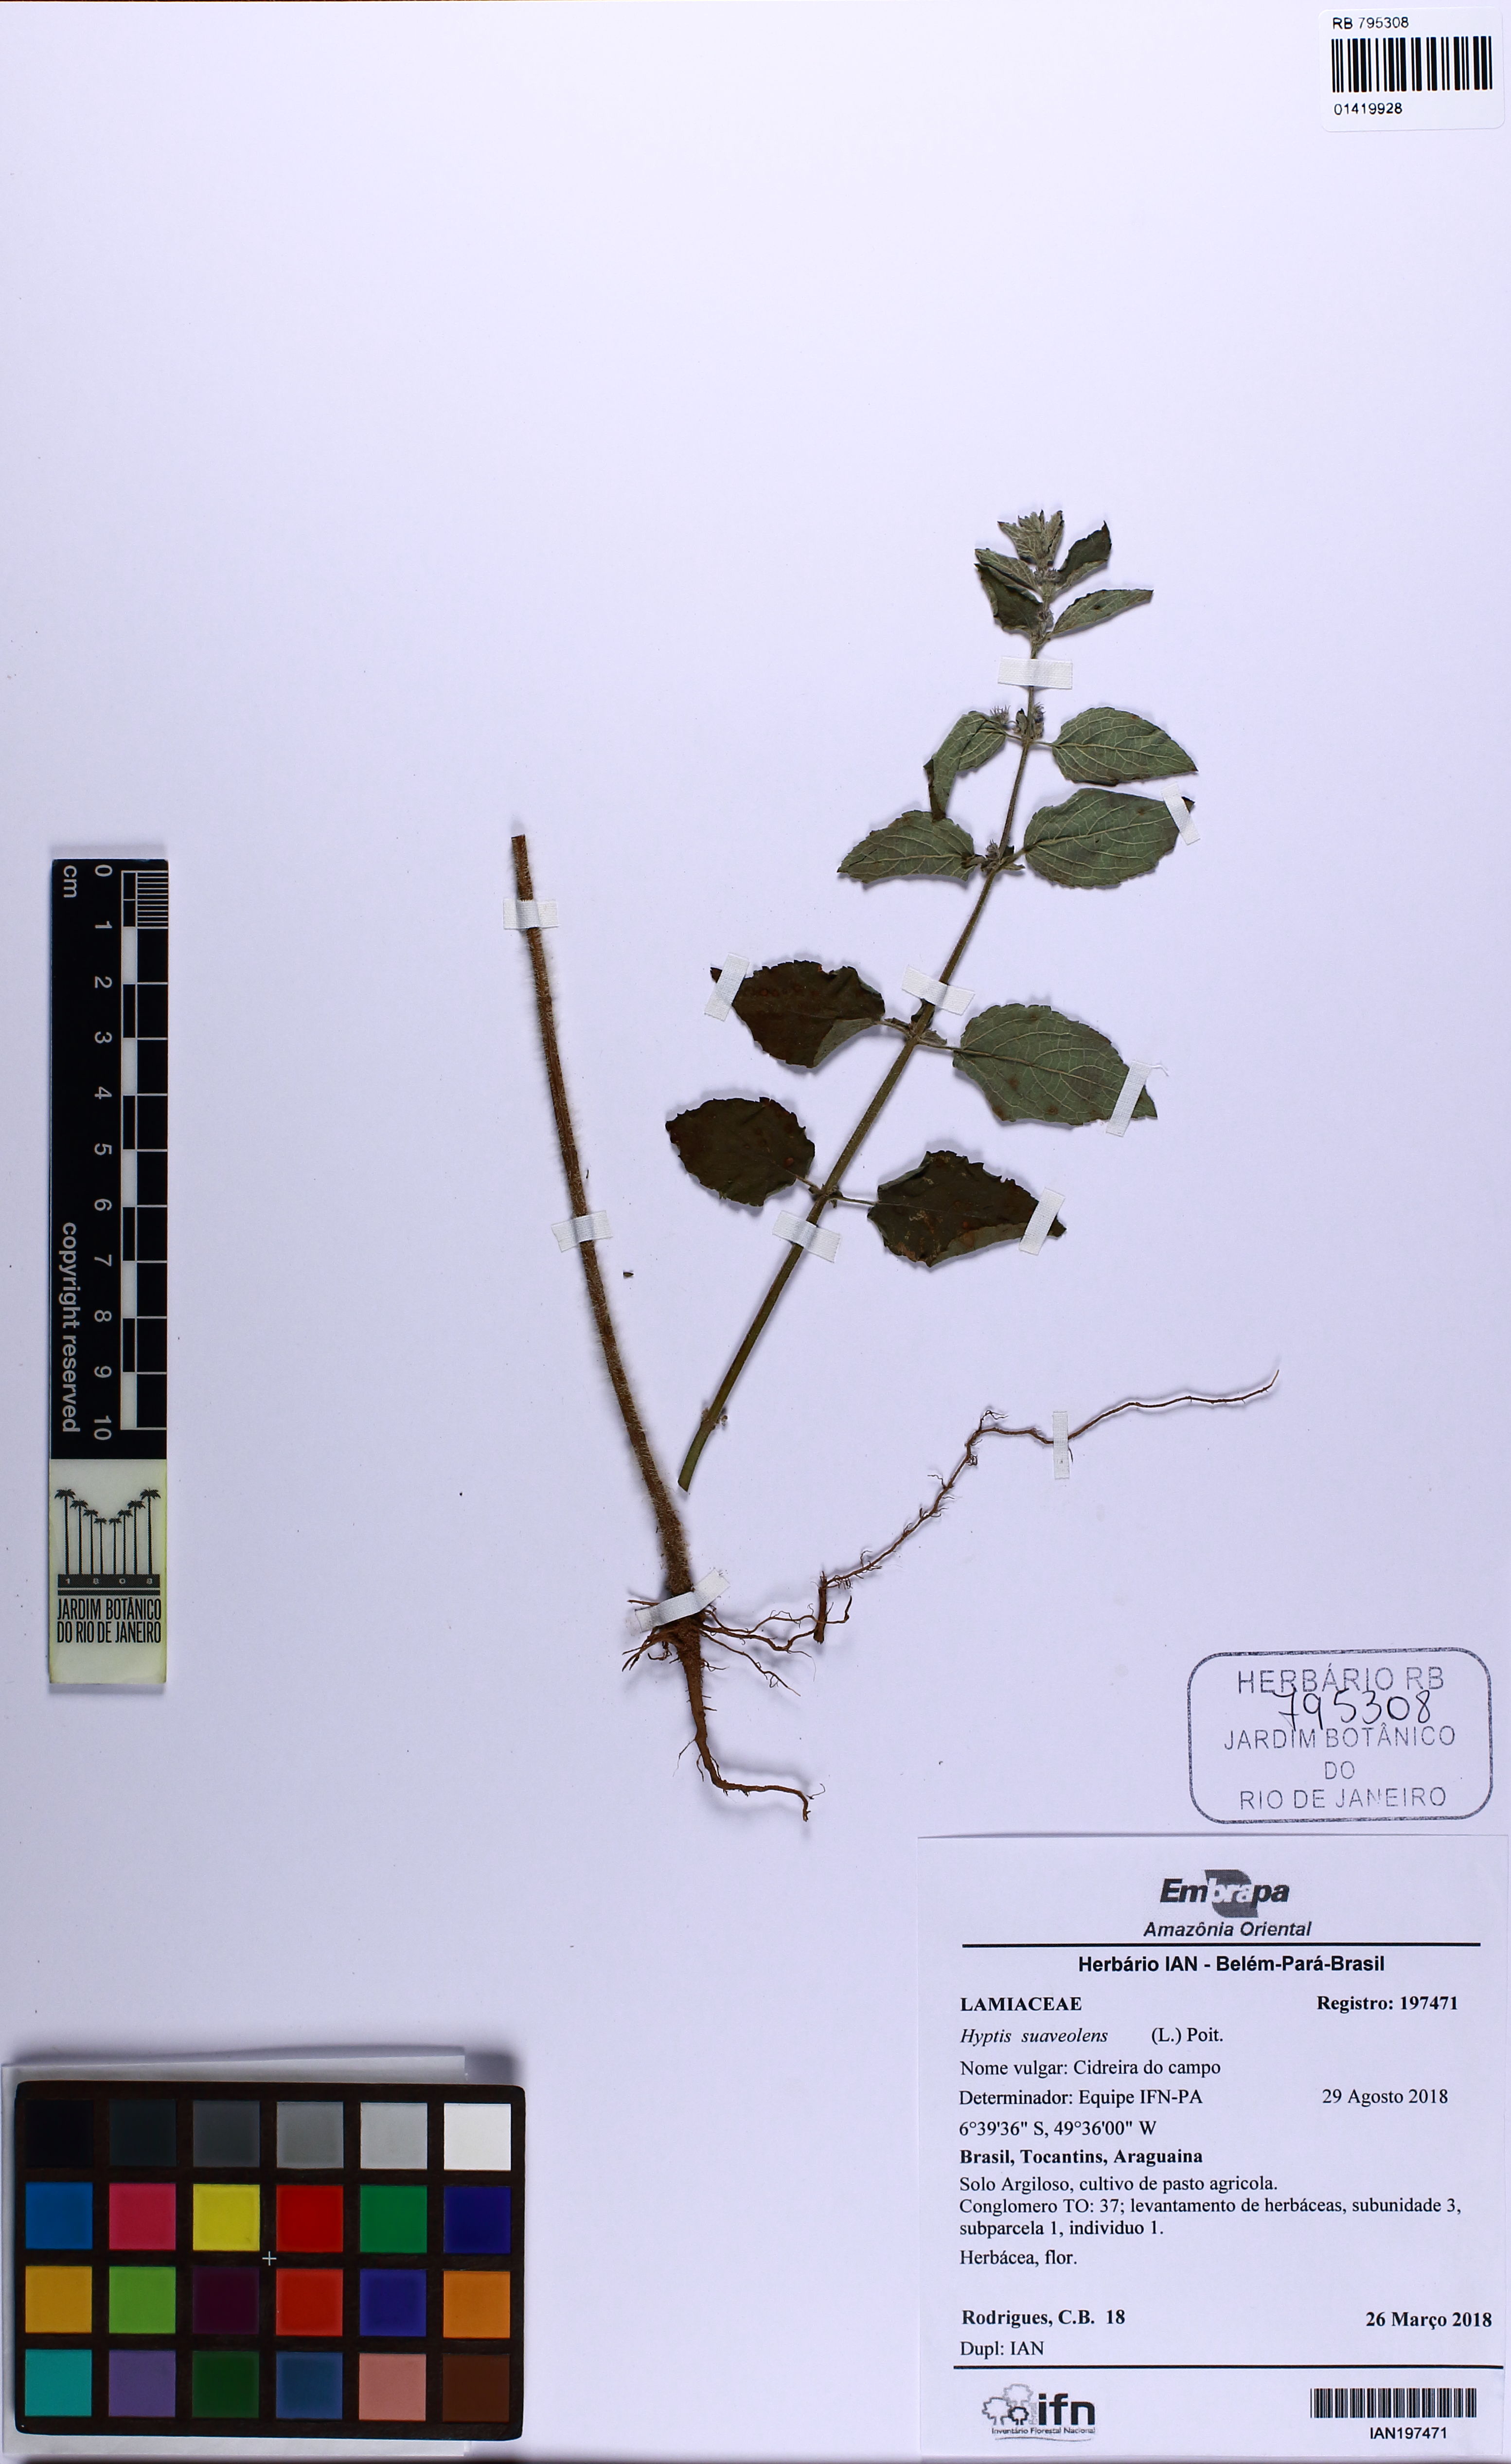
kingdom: Plantae
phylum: Tracheophyta
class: Magnoliopsida
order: Lamiales
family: Lamiaceae
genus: Mesosphaerum
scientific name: Mesosphaerum suaveolens
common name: Pignut
